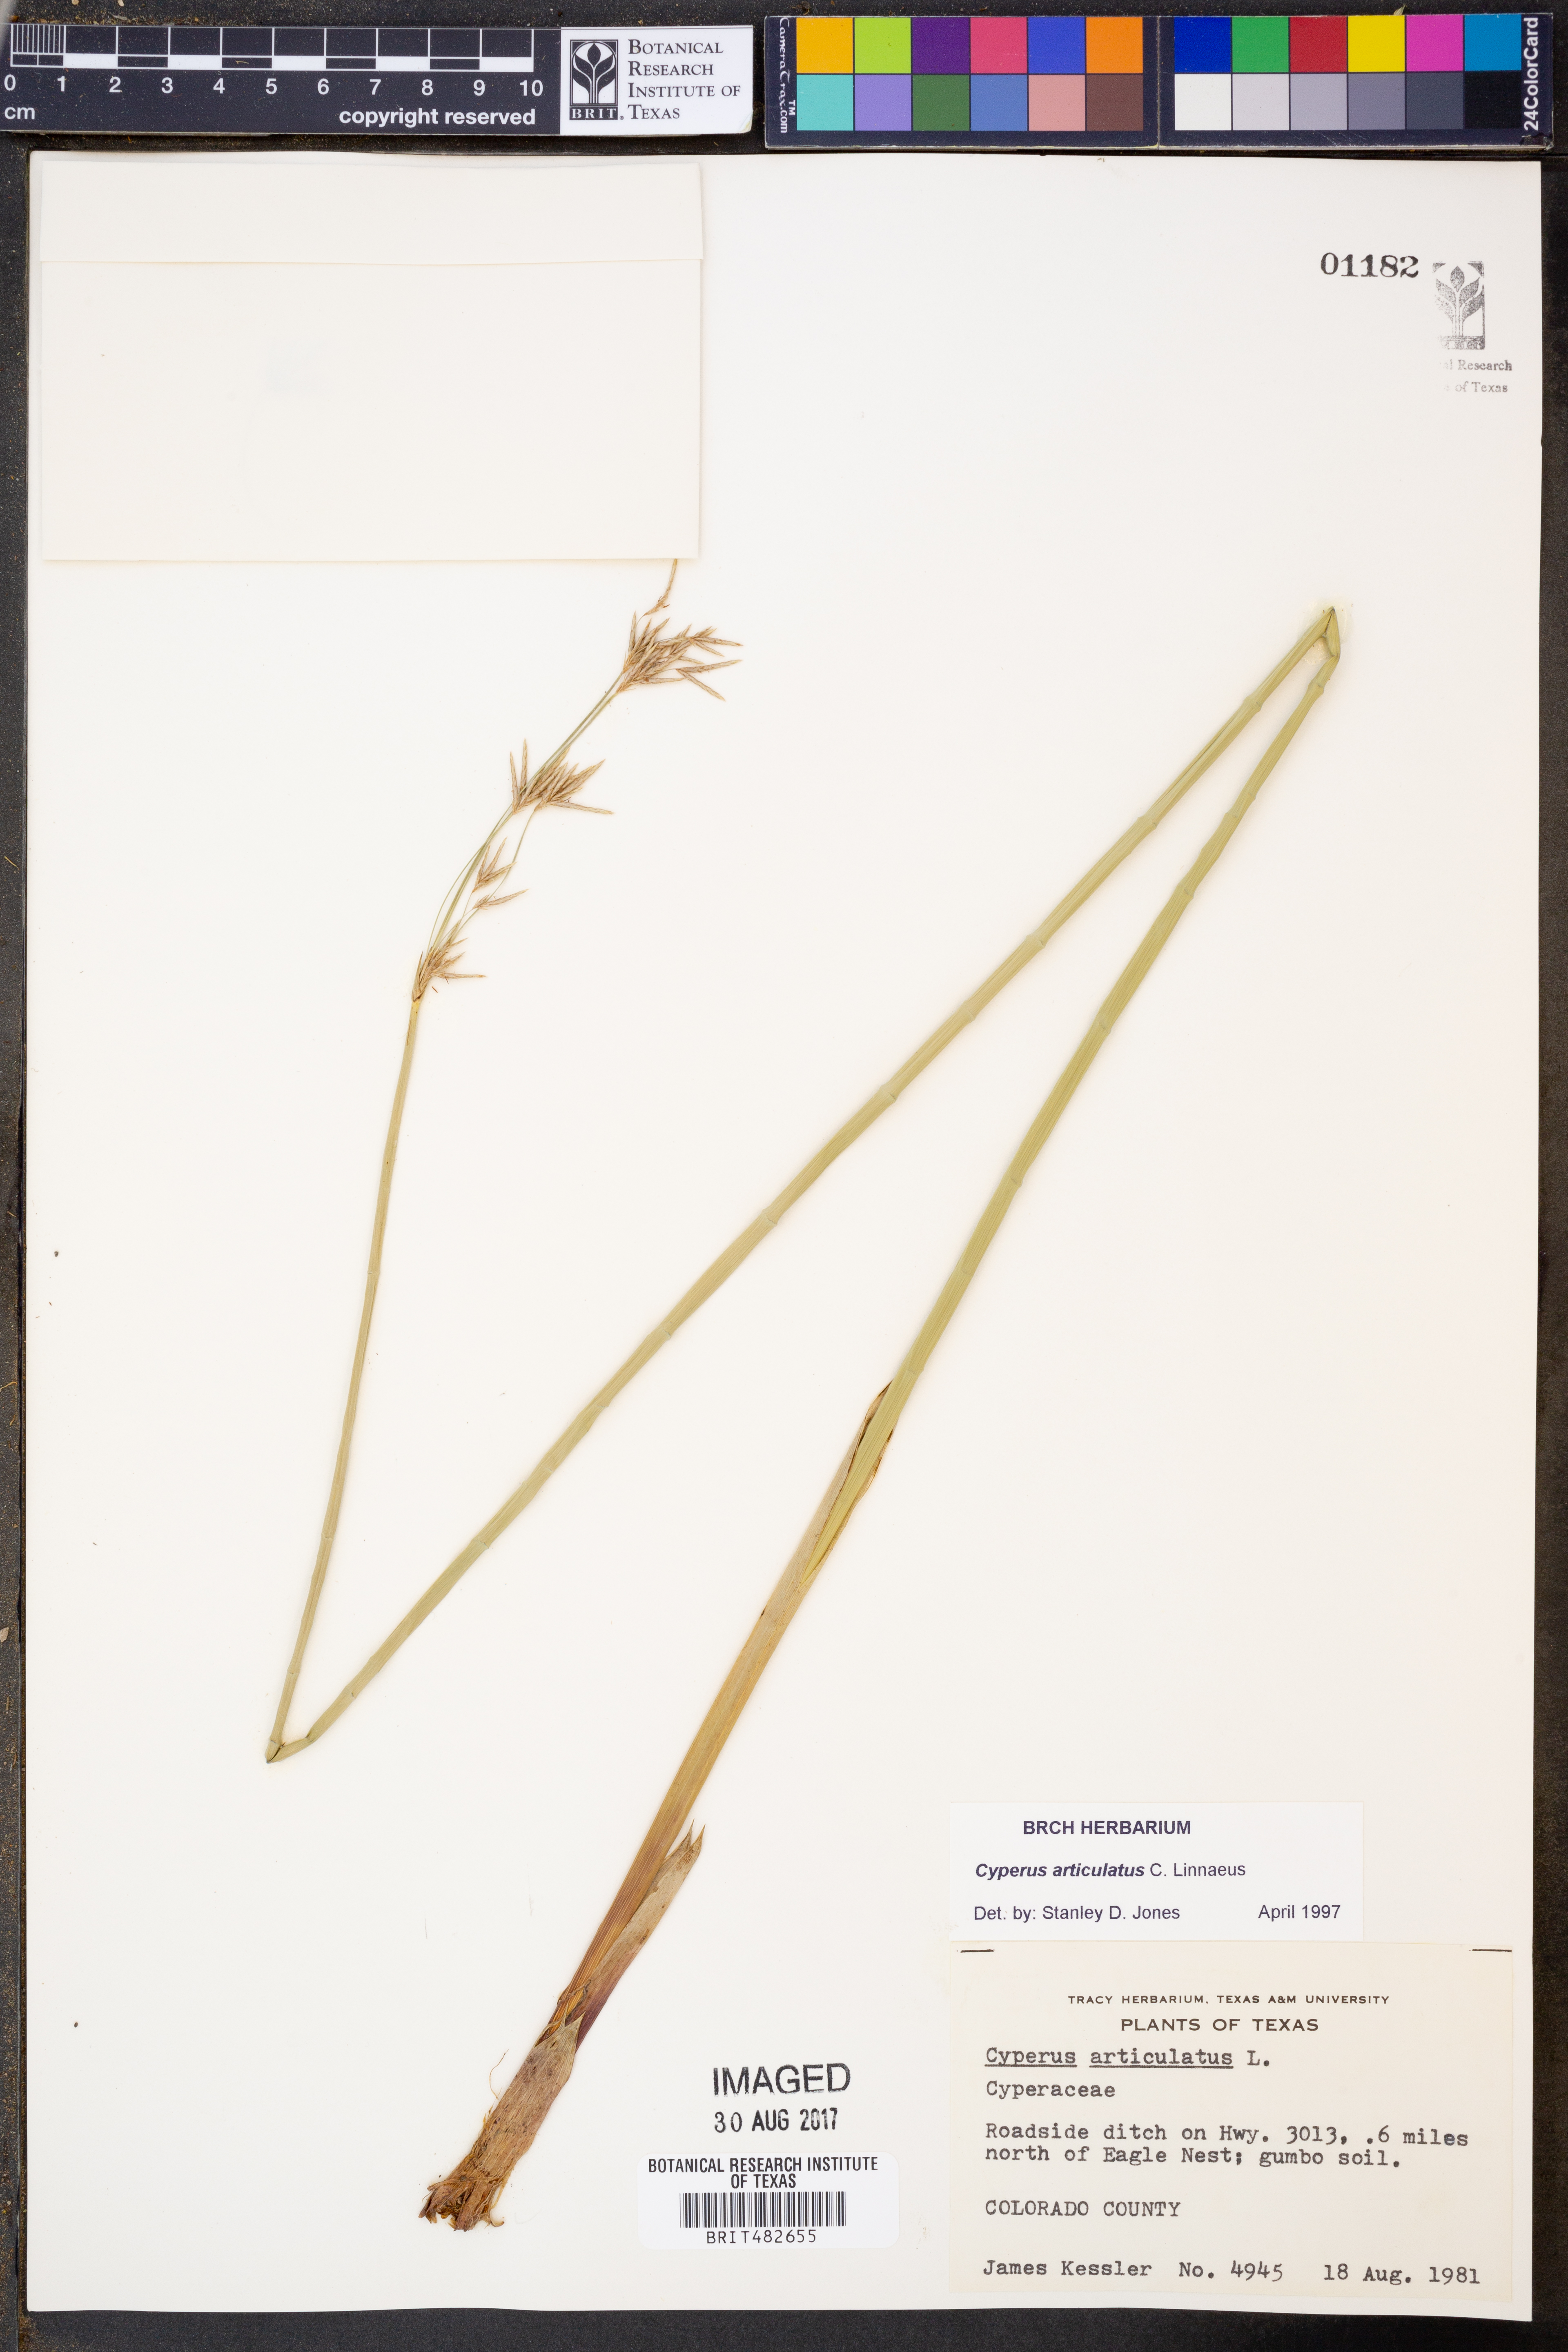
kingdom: Plantae
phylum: Tracheophyta
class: Liliopsida
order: Poales
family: Cyperaceae
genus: Cyperus
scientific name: Cyperus articulatus
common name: Jointed flatsedge
